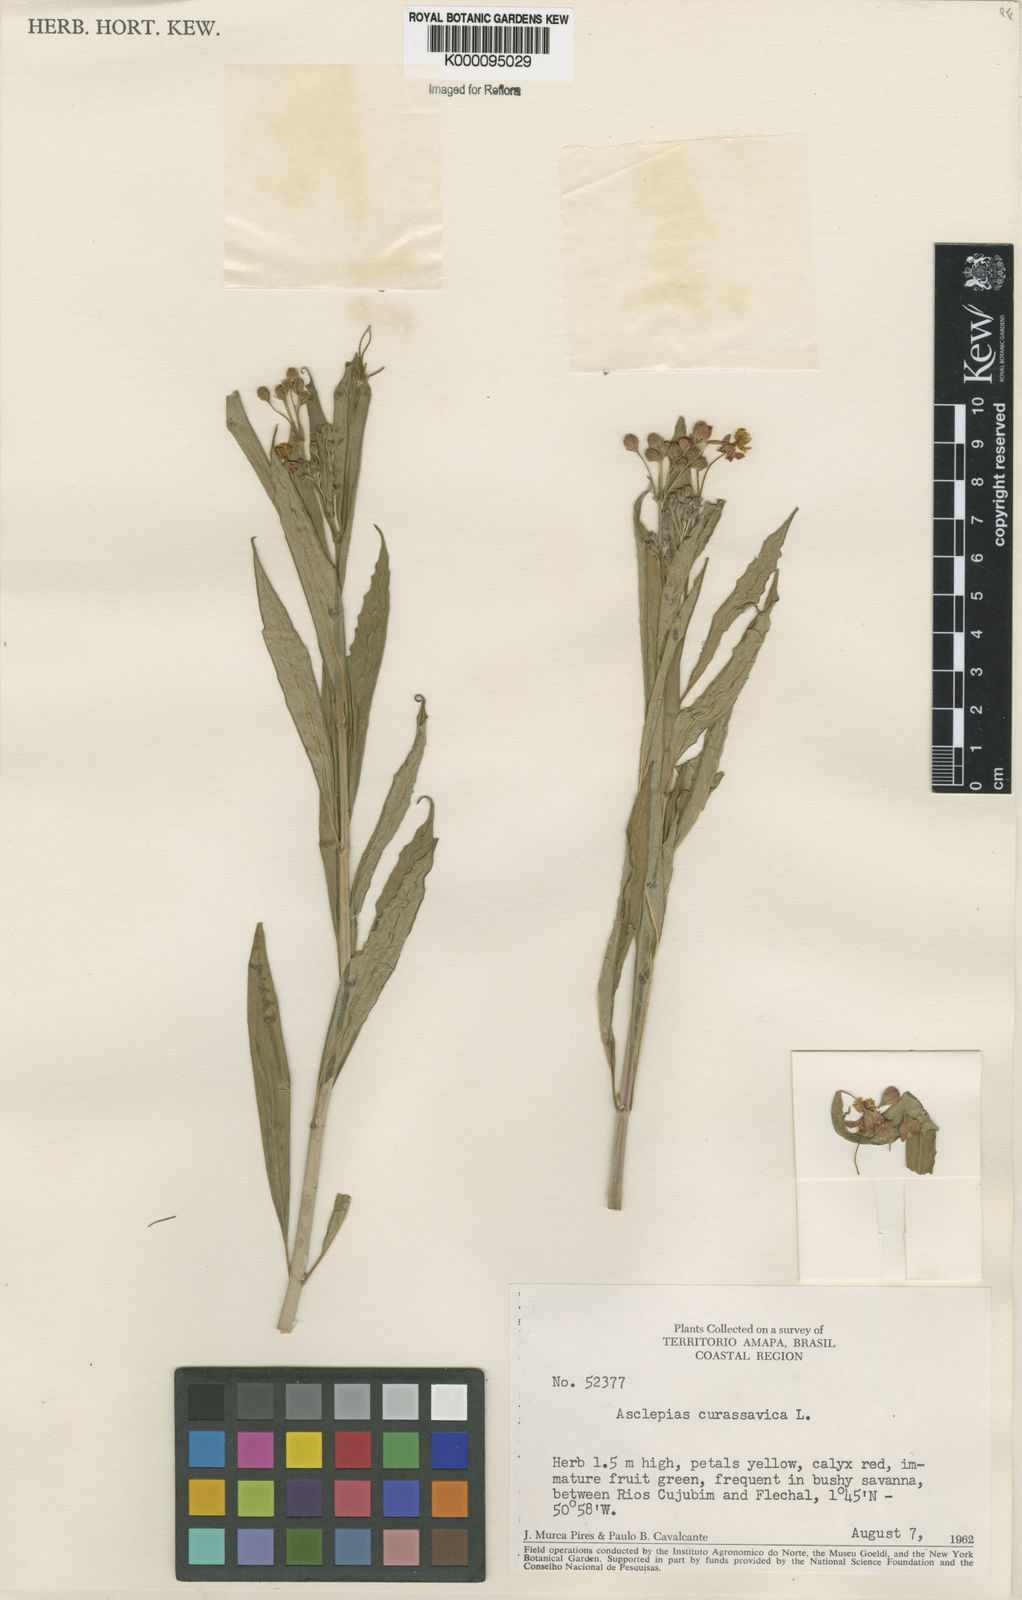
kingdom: Plantae
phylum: Tracheophyta
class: Magnoliopsida
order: Gentianales
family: Apocynaceae
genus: Asclepias
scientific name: Asclepias curassavica
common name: Bloodflower
